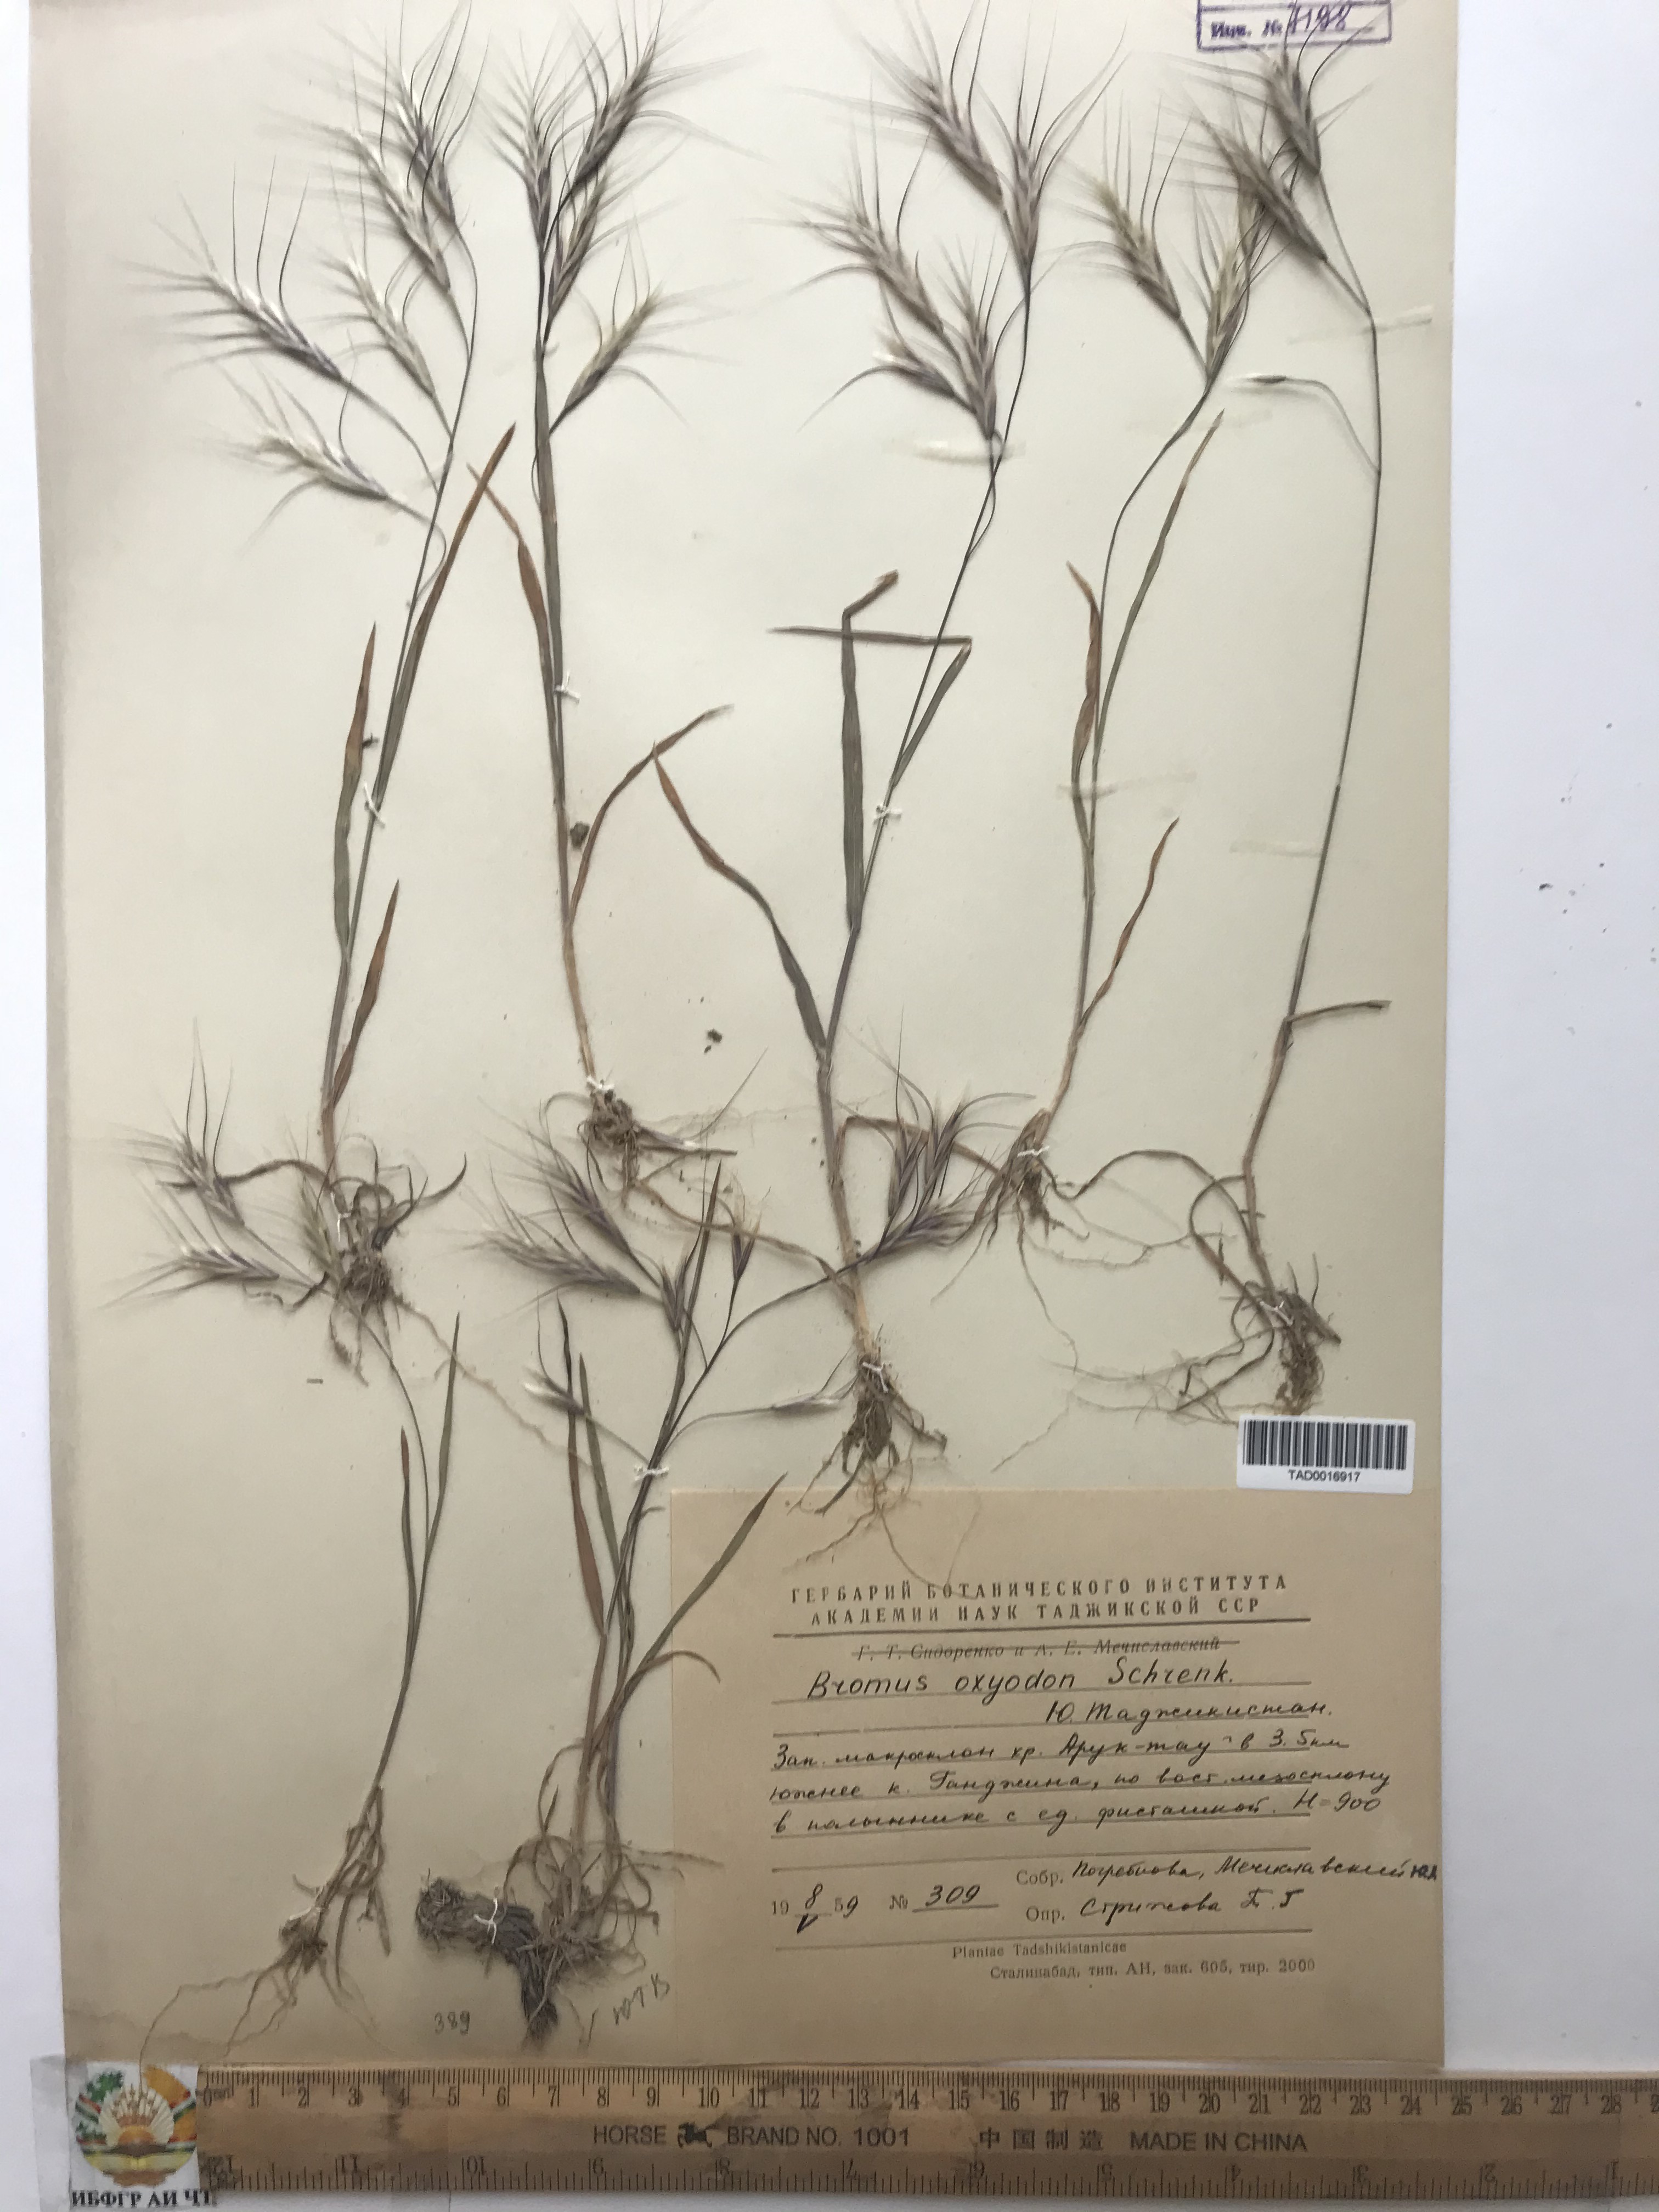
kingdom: Plantae
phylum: Tracheophyta
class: Liliopsida
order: Poales
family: Poaceae
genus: Bromus
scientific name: Bromus oxyodon
